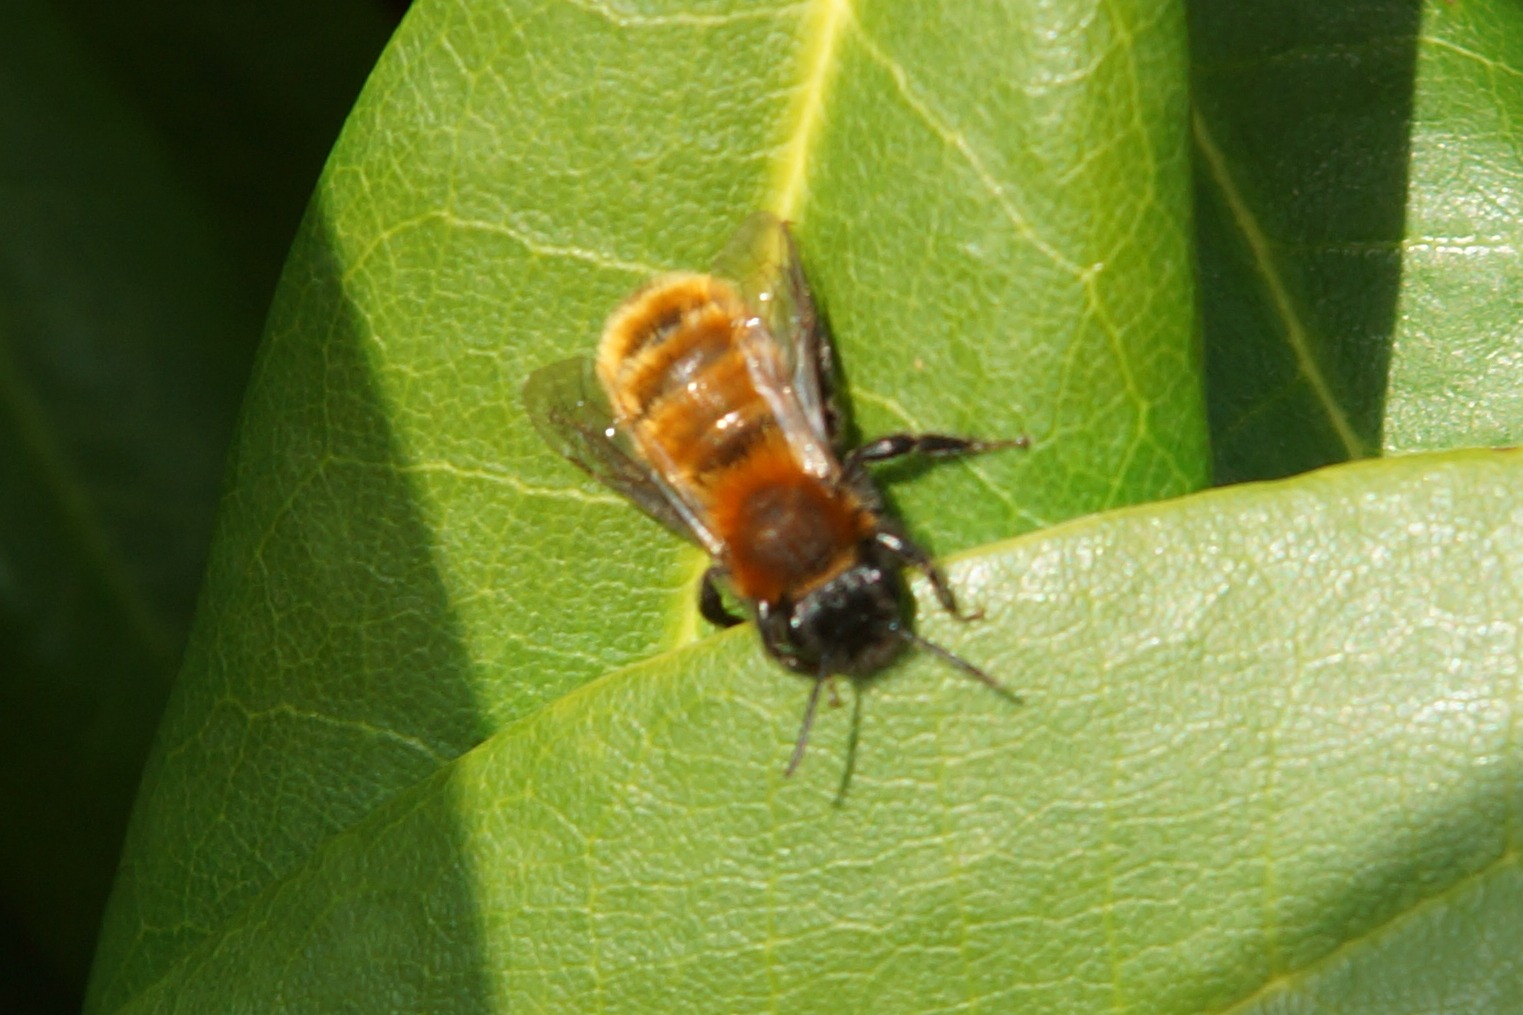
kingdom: Animalia
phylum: Arthropoda
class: Insecta
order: Hymenoptera
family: Andrenidae
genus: Andrena
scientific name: Andrena fulva
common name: Rødpelset jordbi
